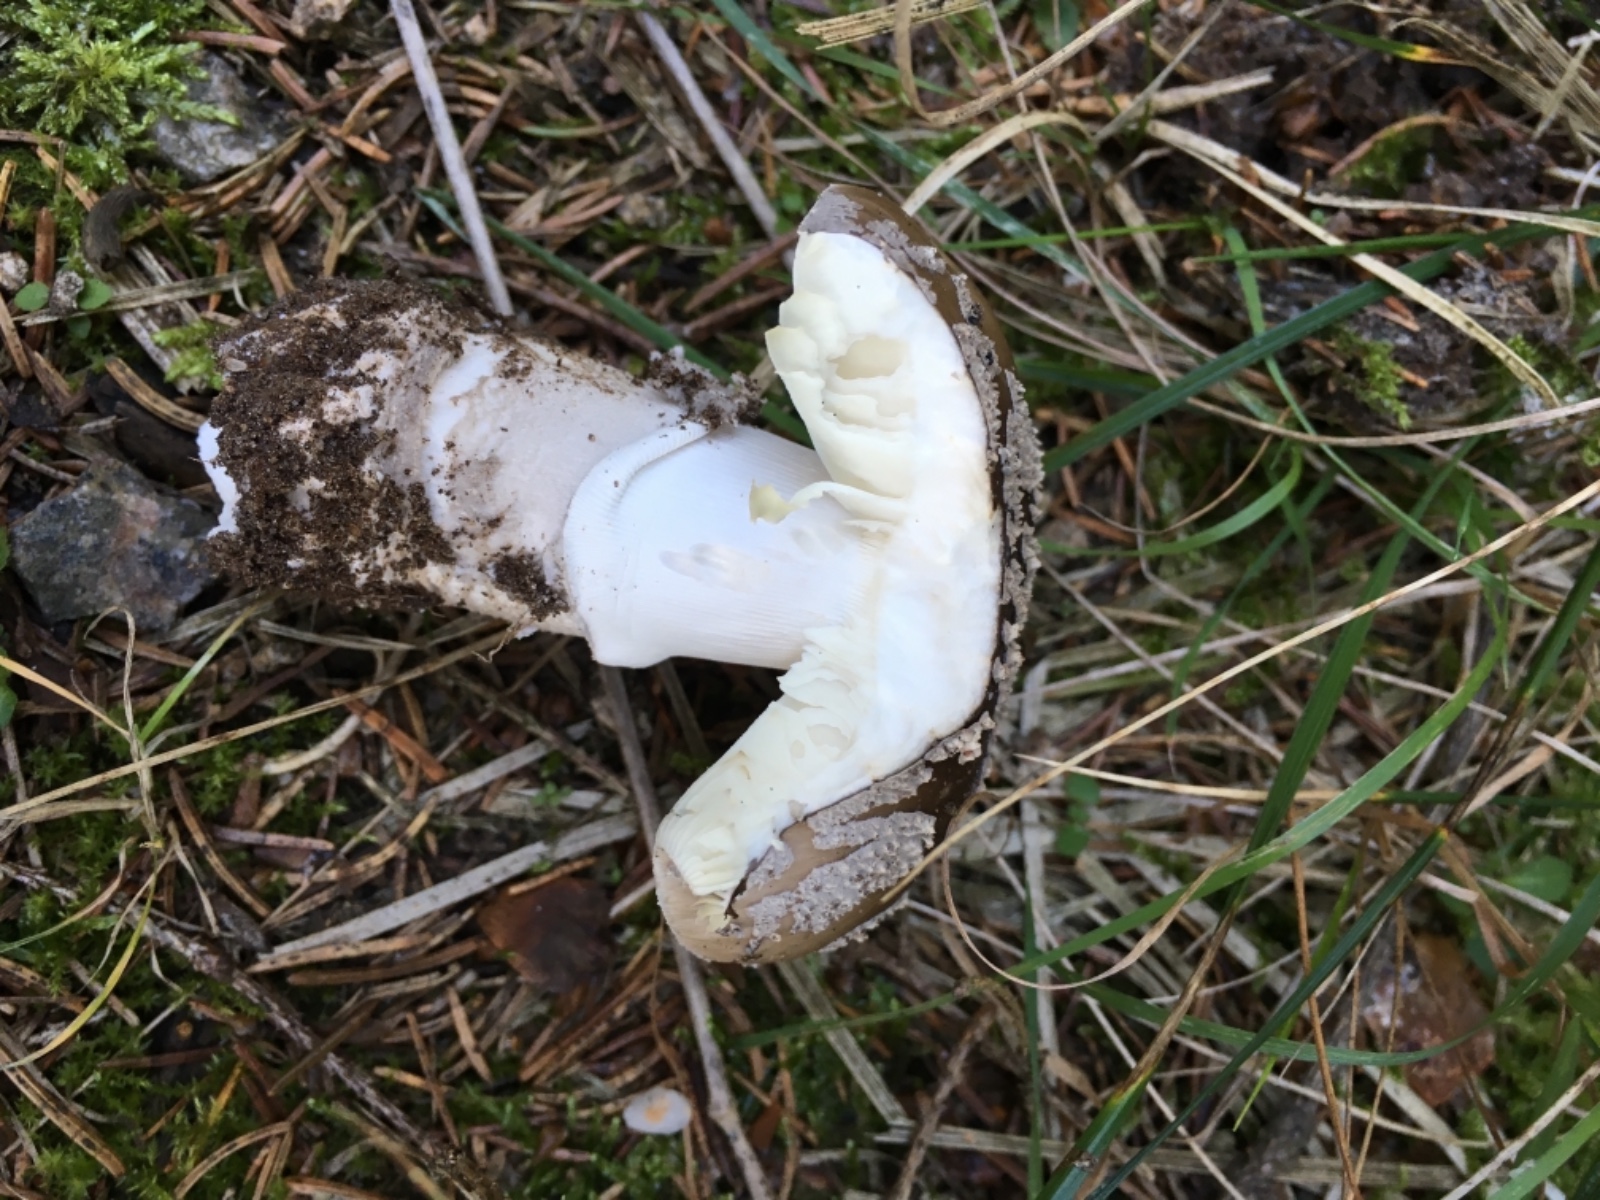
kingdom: Fungi
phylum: Basidiomycota
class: Agaricomycetes
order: Agaricales
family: Amanitaceae
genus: Amanita
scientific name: Amanita
